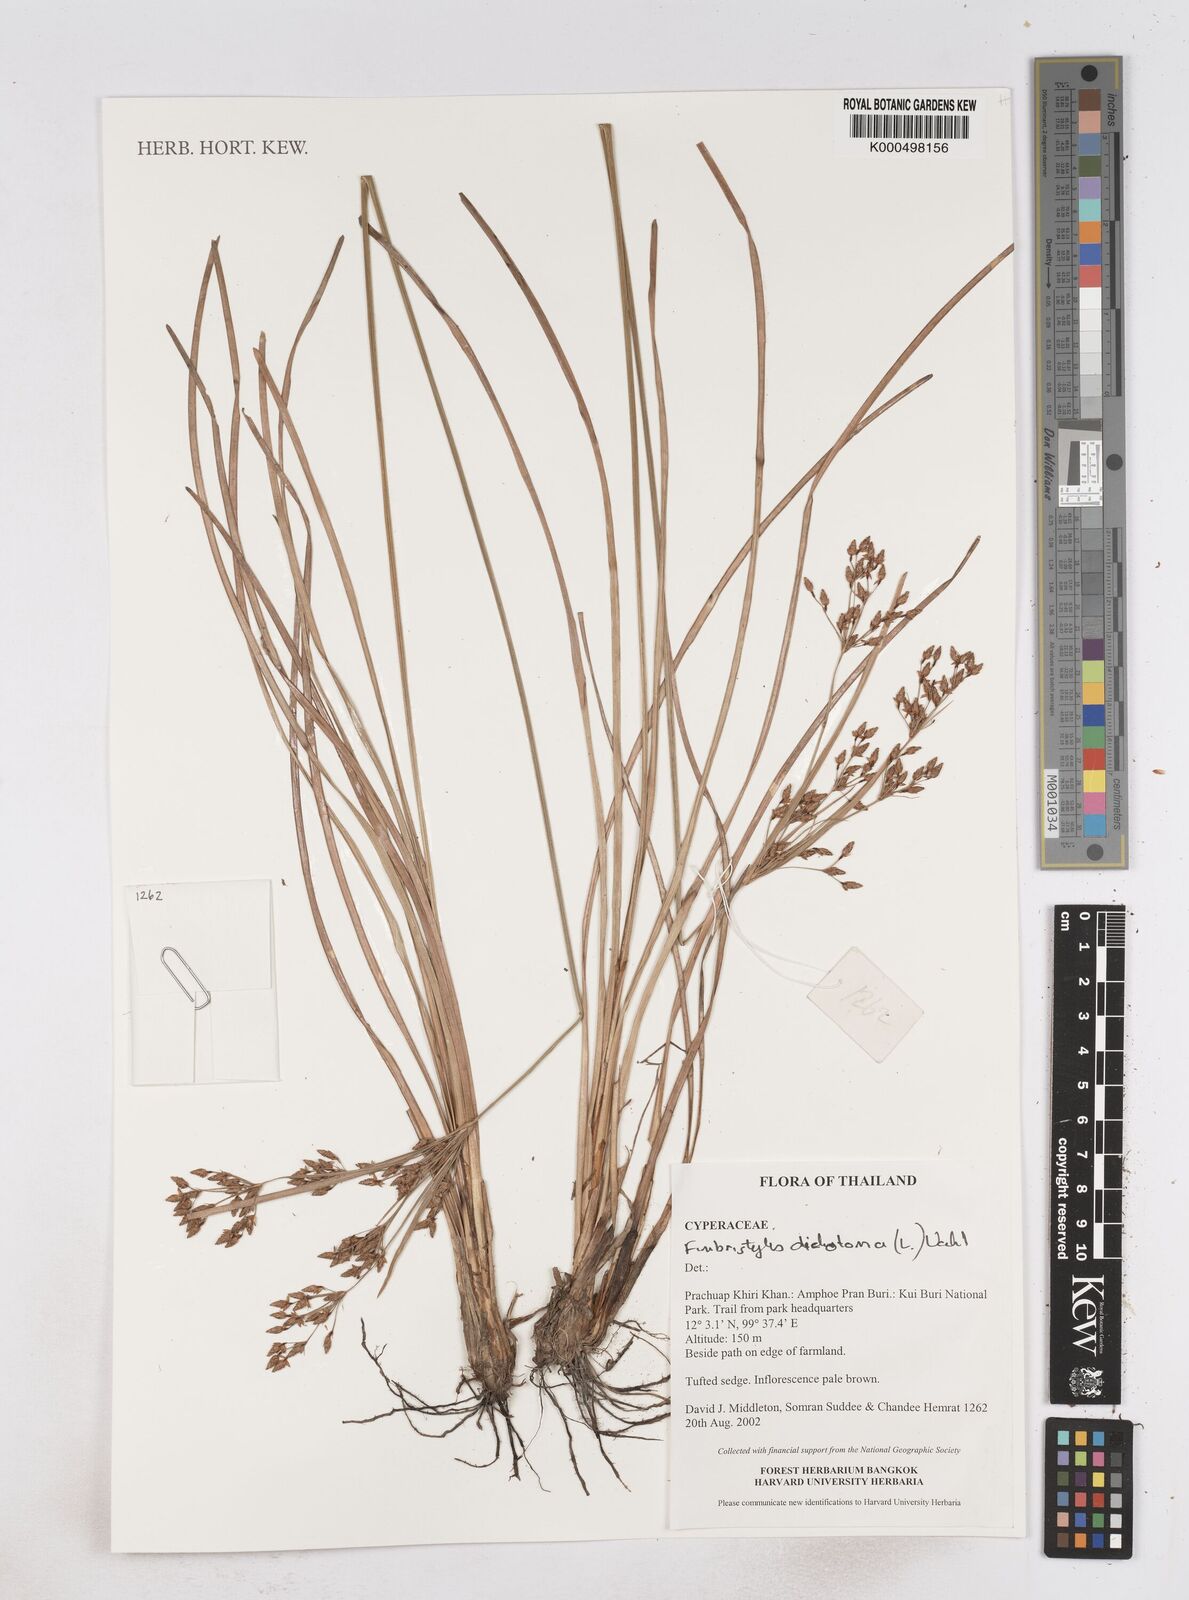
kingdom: Plantae
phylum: Tracheophyta
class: Liliopsida
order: Poales
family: Cyperaceae
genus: Fimbristylis
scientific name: Fimbristylis dichotoma
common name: Forked fimbry
